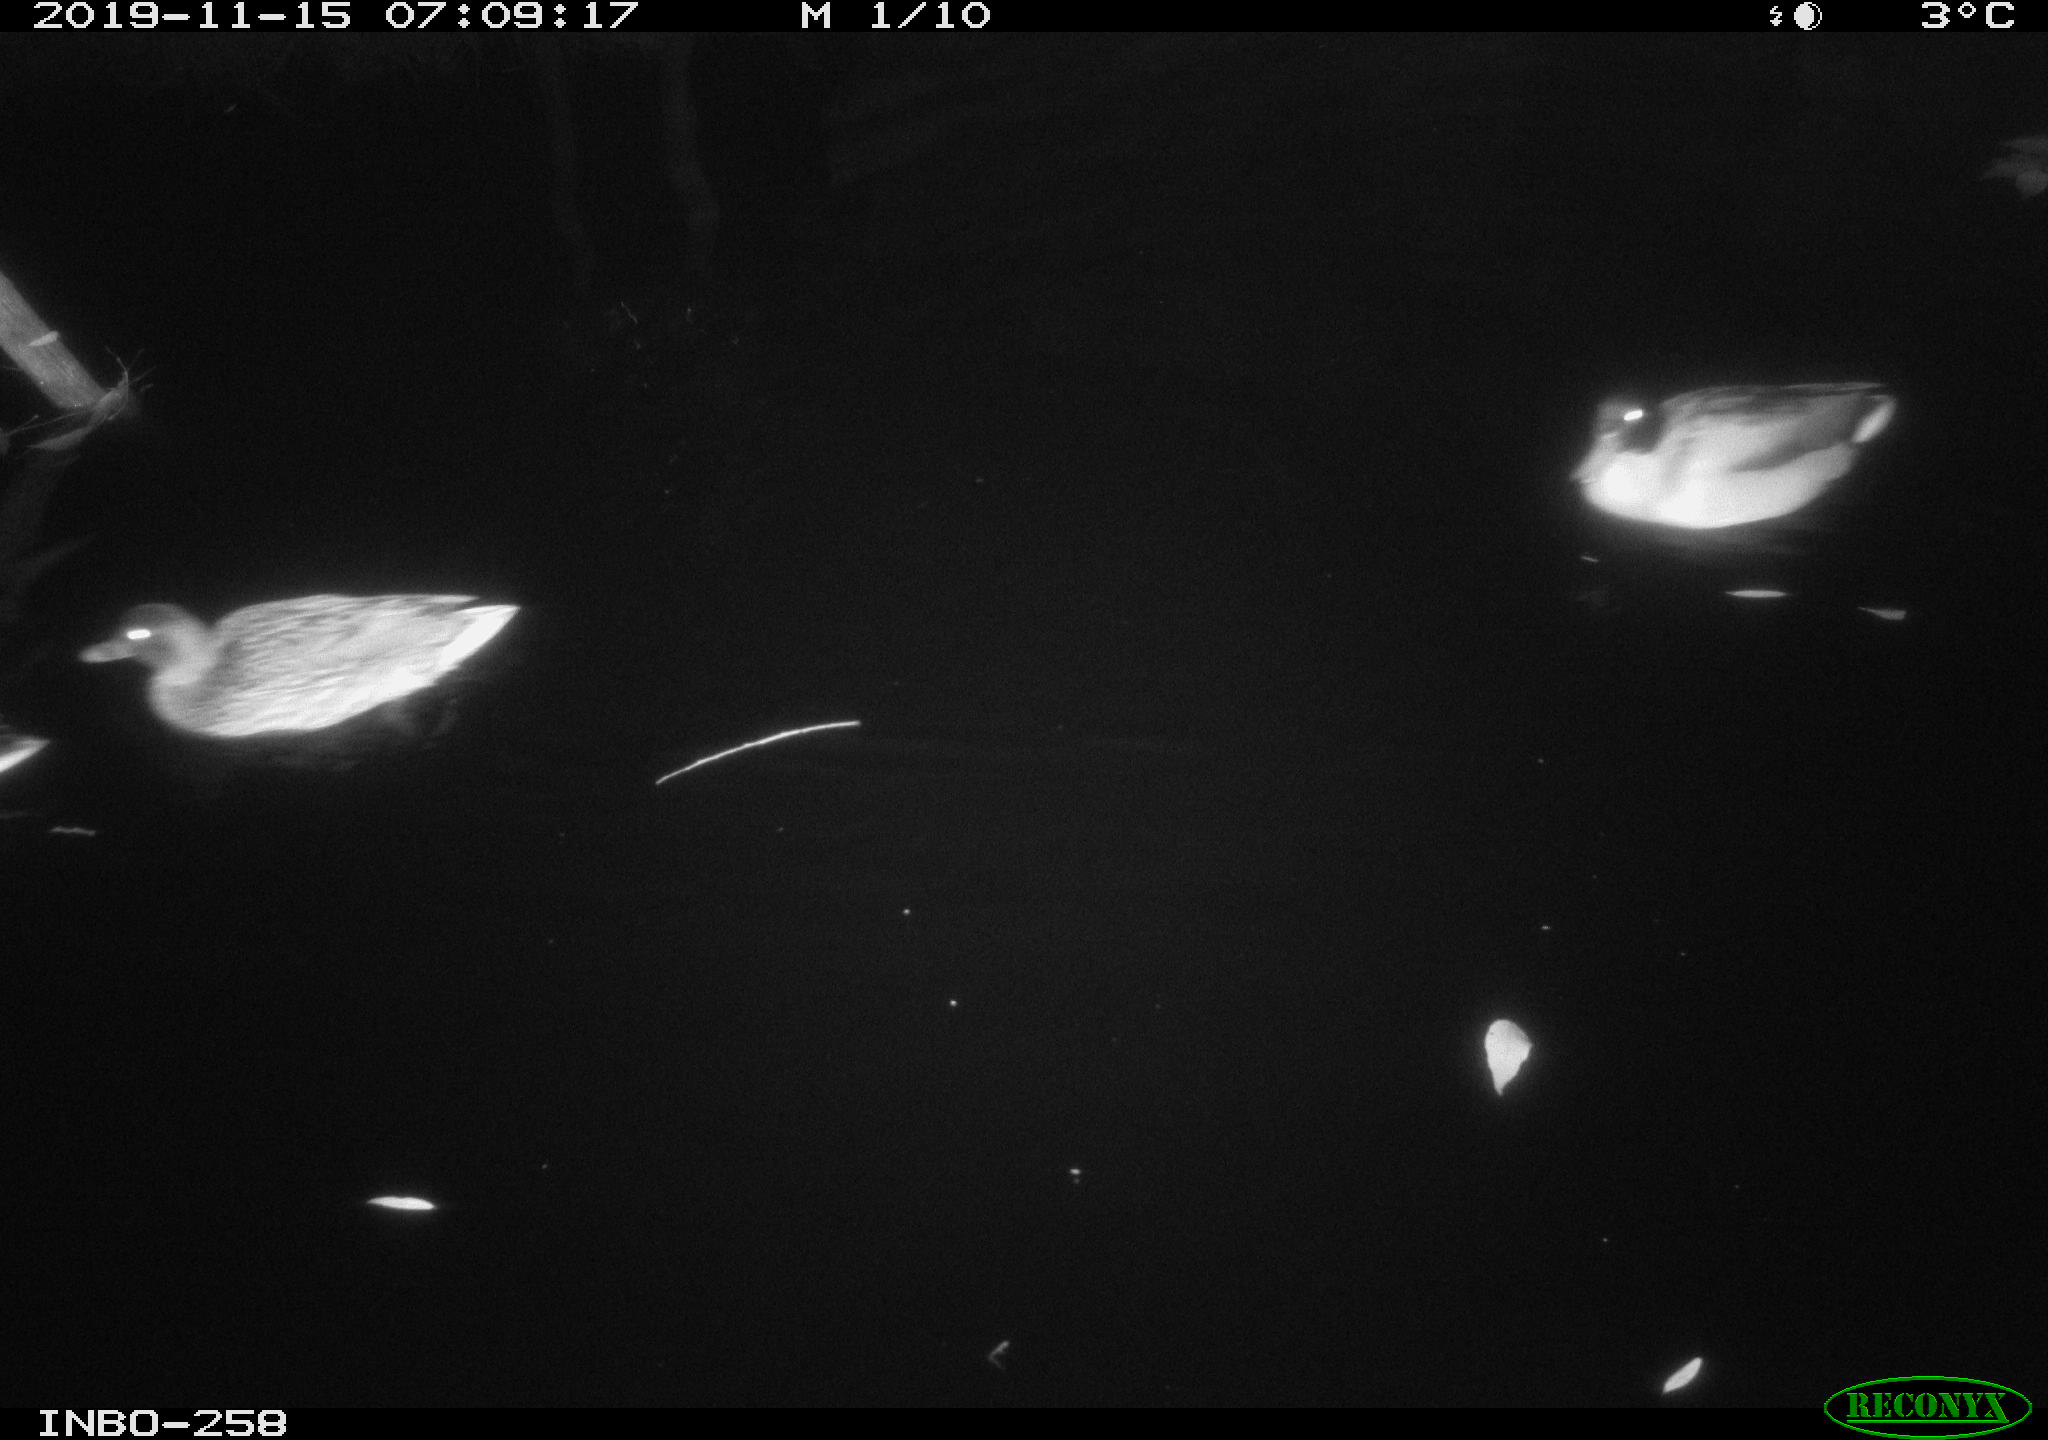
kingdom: Animalia
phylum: Chordata
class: Aves
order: Anseriformes
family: Anatidae
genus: Anas
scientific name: Anas platyrhynchos
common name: Mallard
